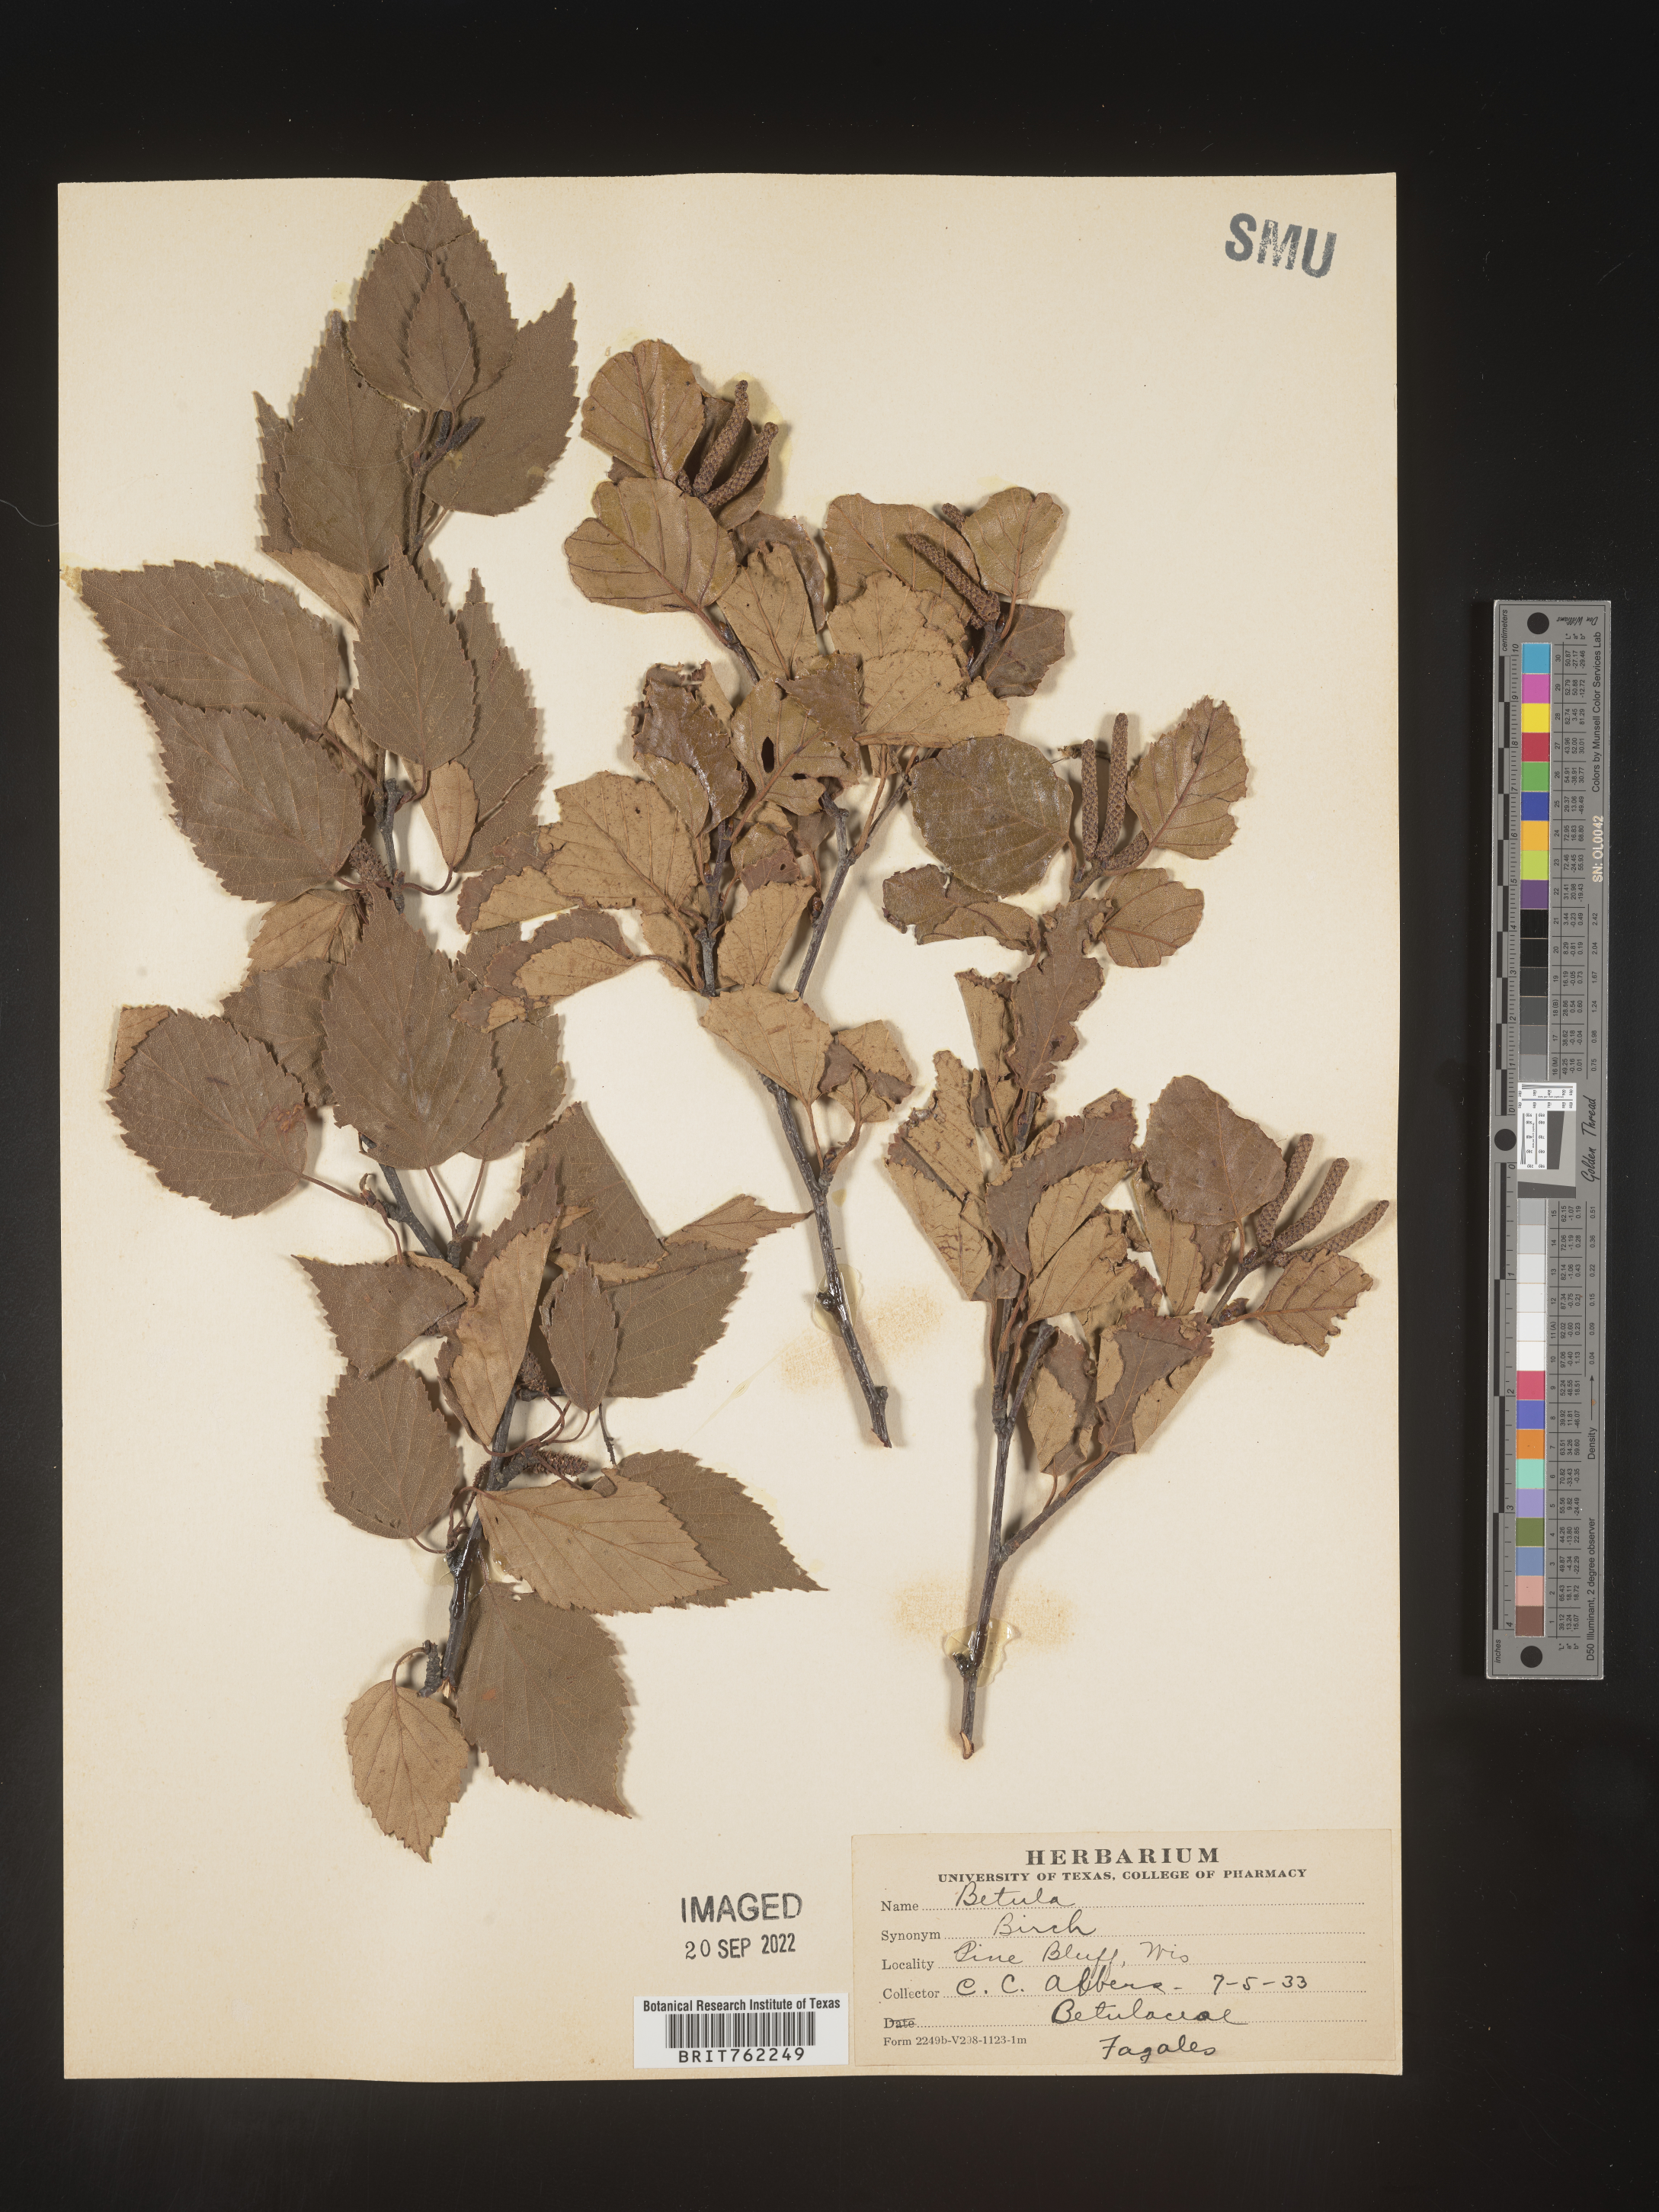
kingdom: Plantae
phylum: Tracheophyta
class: Magnoliopsida
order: Fagales
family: Betulaceae
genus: Betula
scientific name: Betula
